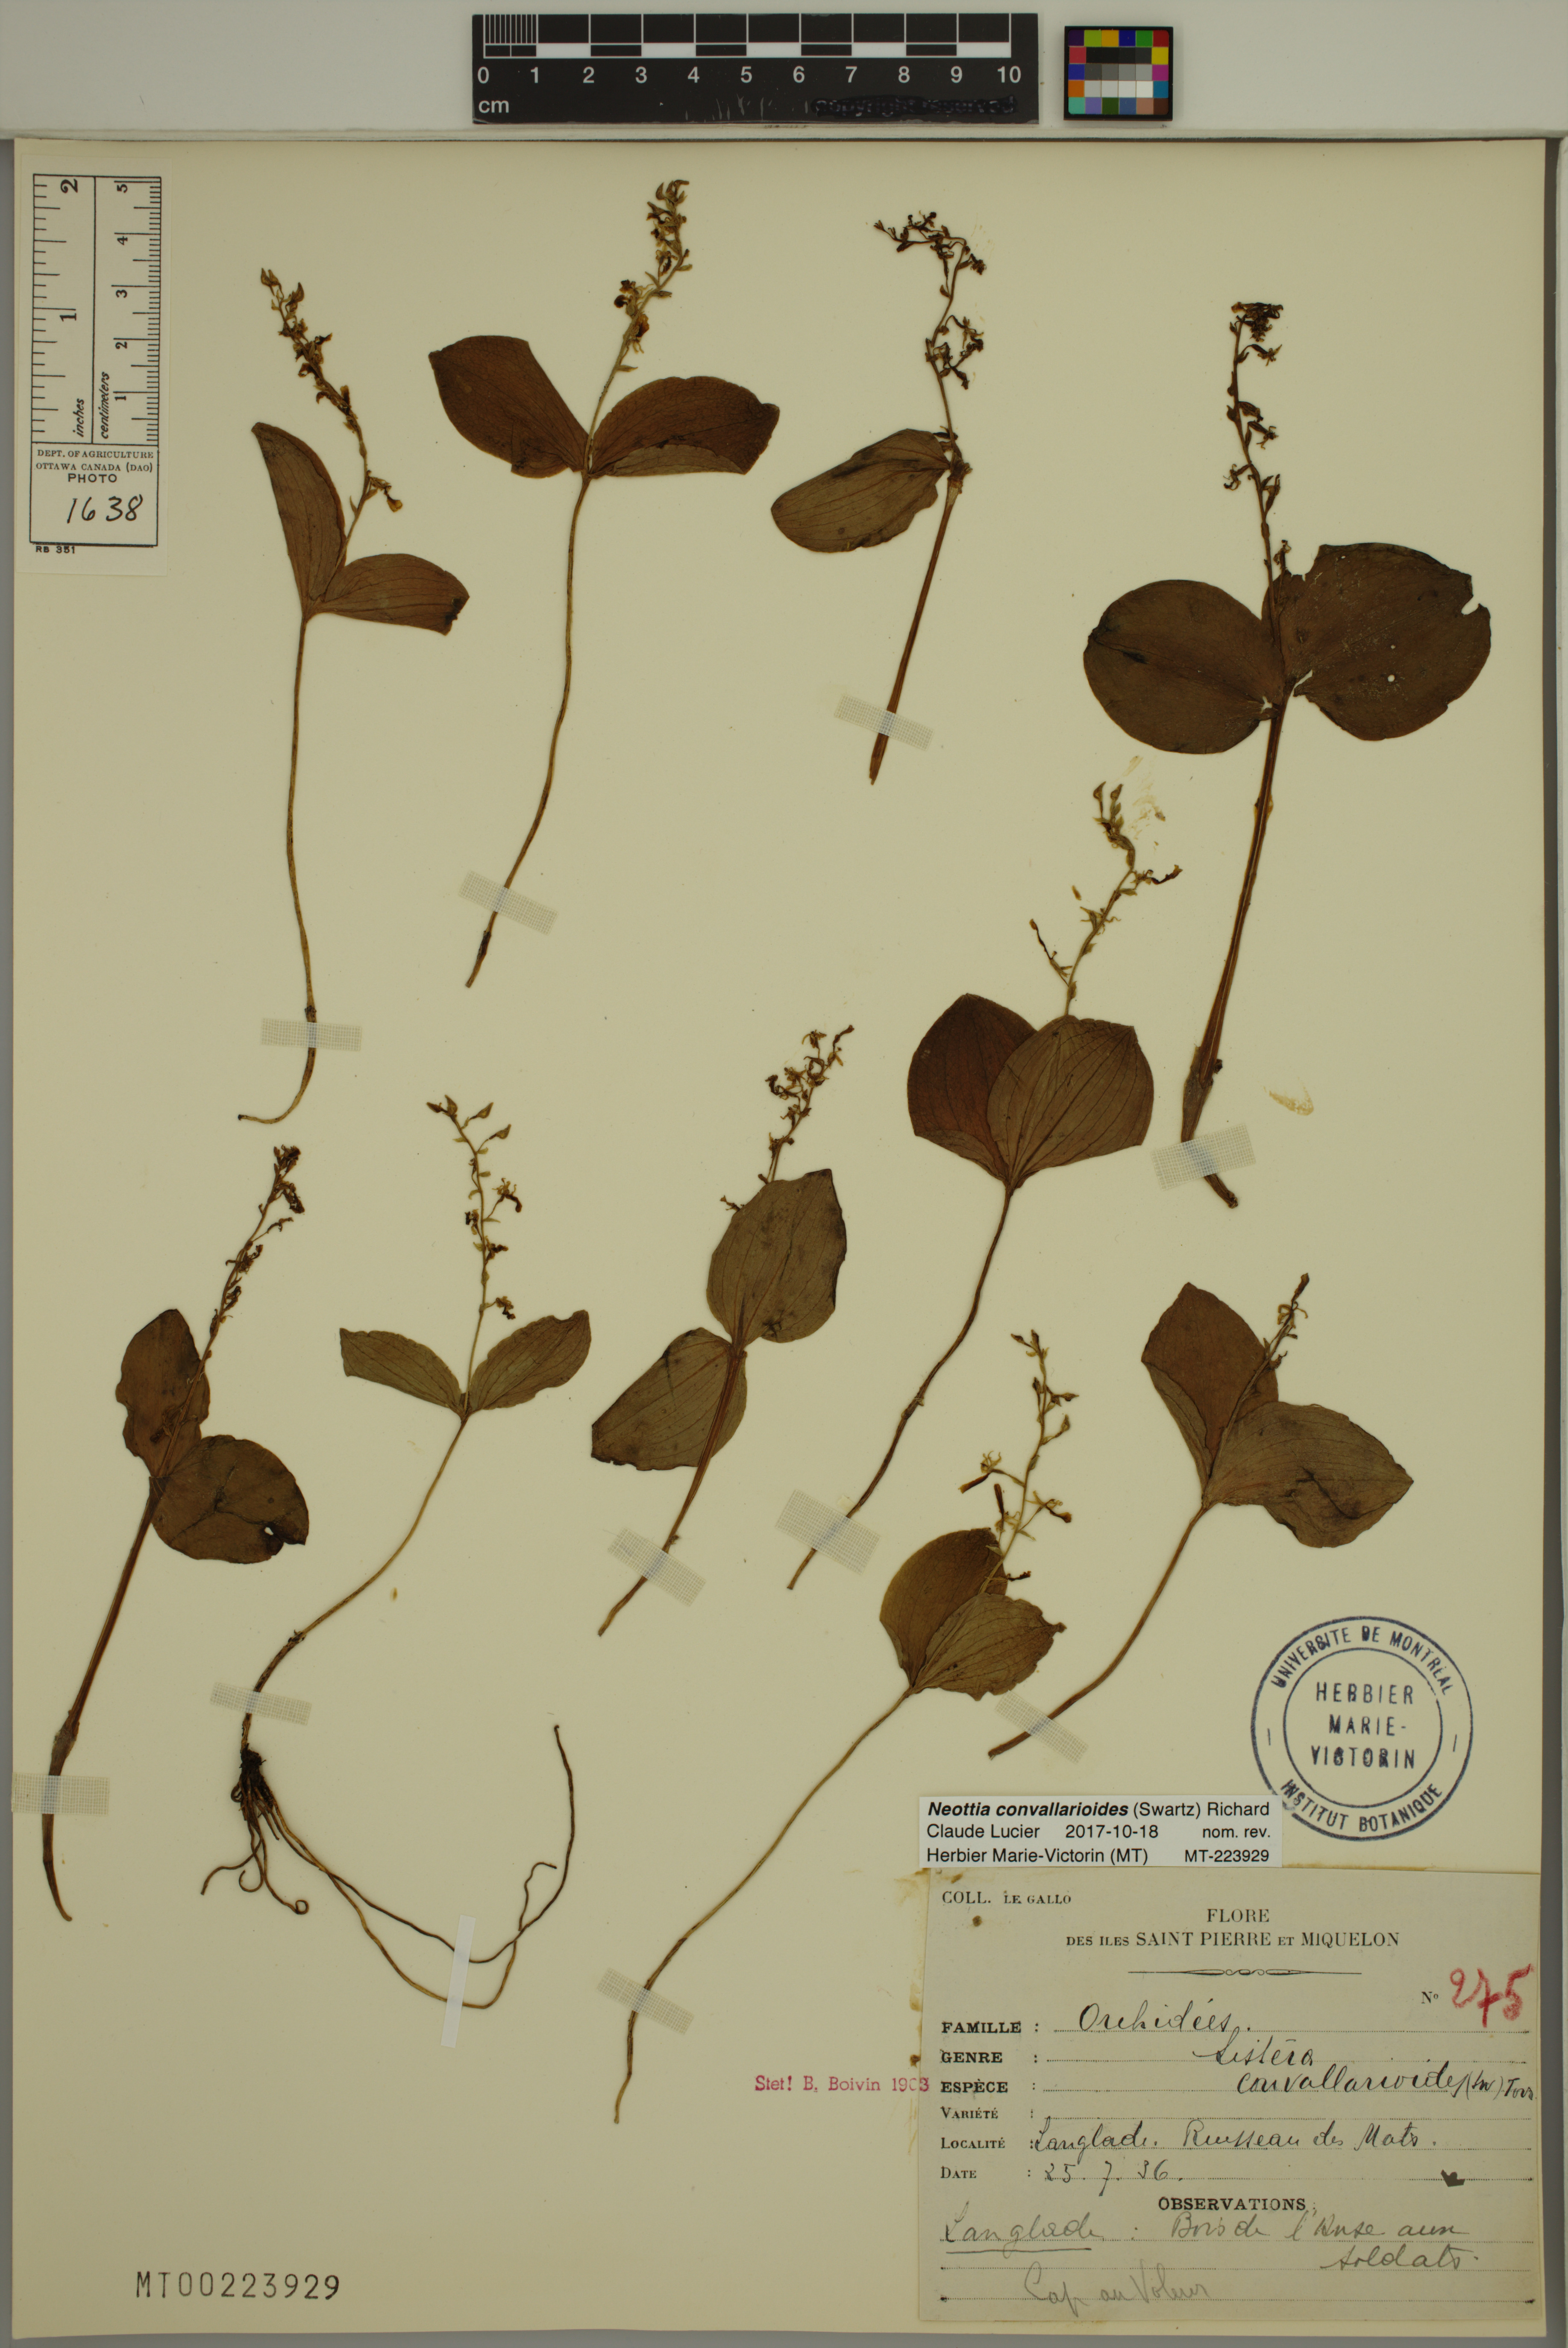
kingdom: Plantae
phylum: Tracheophyta
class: Liliopsida
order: Asparagales
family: Orchidaceae
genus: Neottia
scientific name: Neottia convallarioides
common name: Broadleaf twayblade
